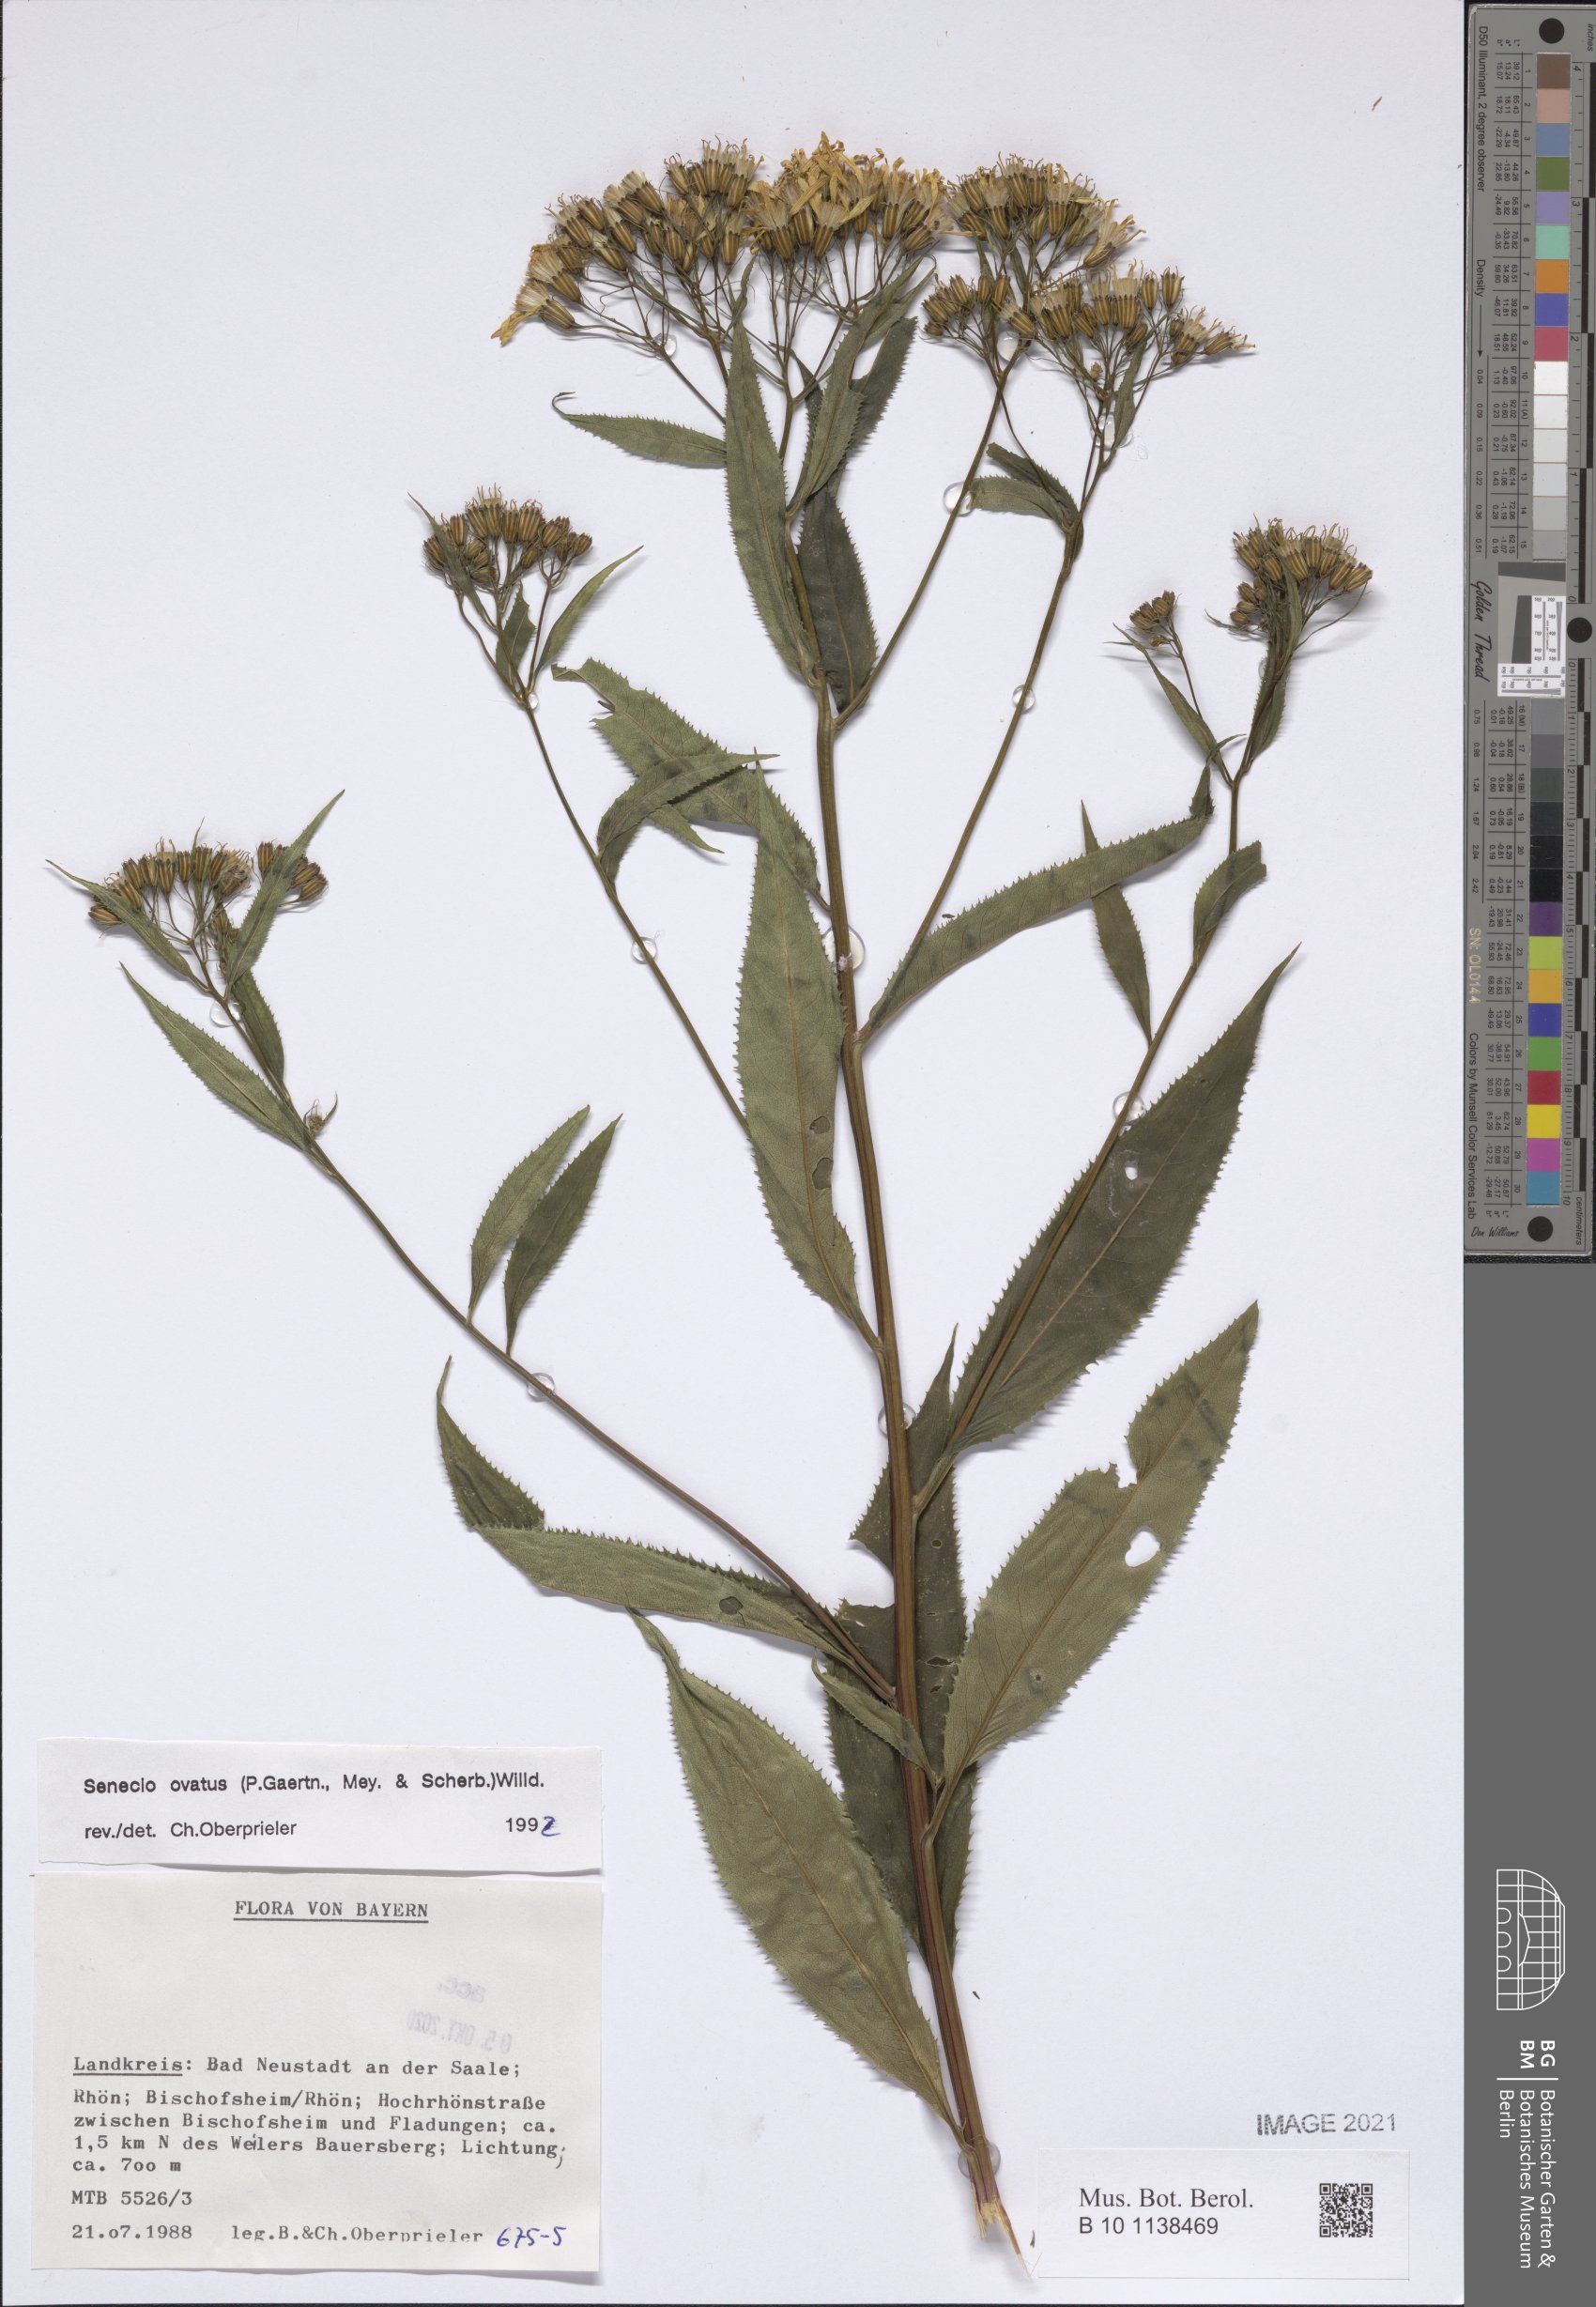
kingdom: Plantae
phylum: Tracheophyta
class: Magnoliopsida
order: Asterales
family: Asteraceae
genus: Senecio
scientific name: Senecio ovatus
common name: Wood ragwort
